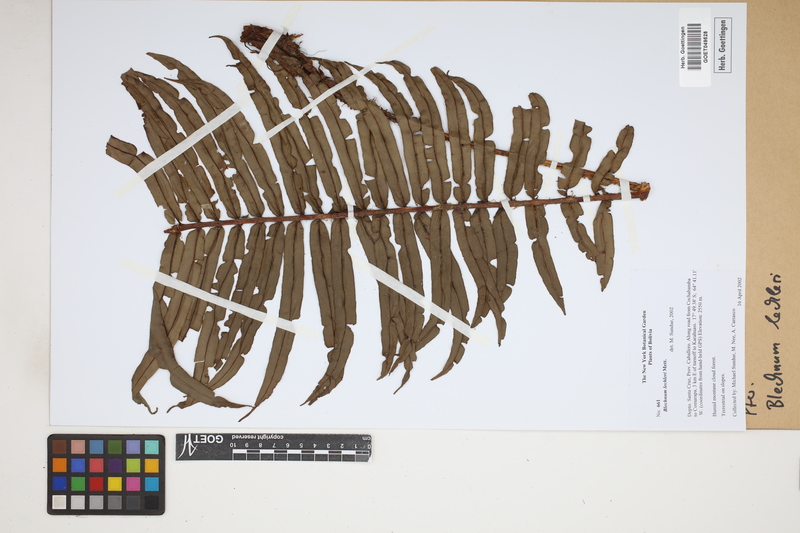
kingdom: Plantae
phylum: Tracheophyta
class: Polypodiopsida
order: Polypodiales
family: Blechnaceae
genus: Parablechnum
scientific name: Parablechnum lechleri
